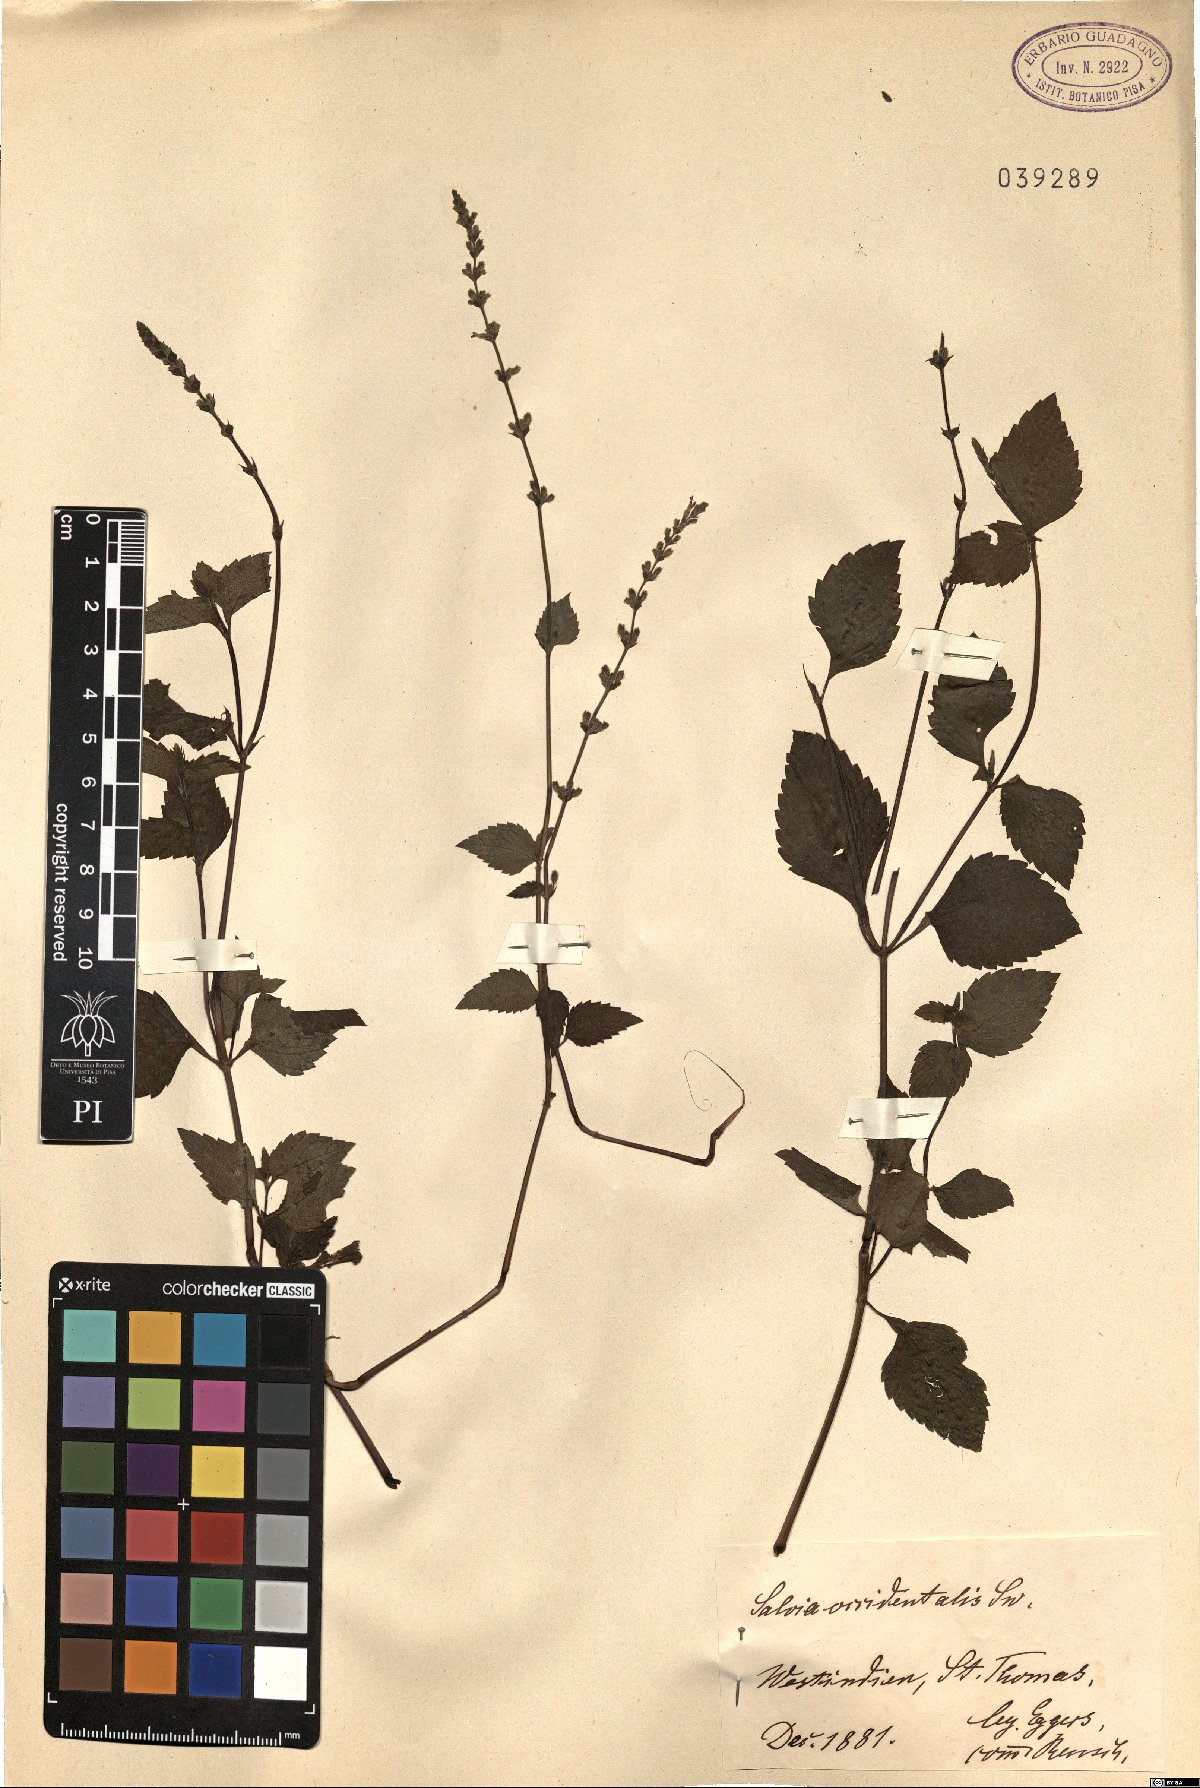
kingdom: Plantae
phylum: Tracheophyta
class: Magnoliopsida
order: Lamiales
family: Lamiaceae
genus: Salvia
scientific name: Salvia occidentalis
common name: West indian sage
